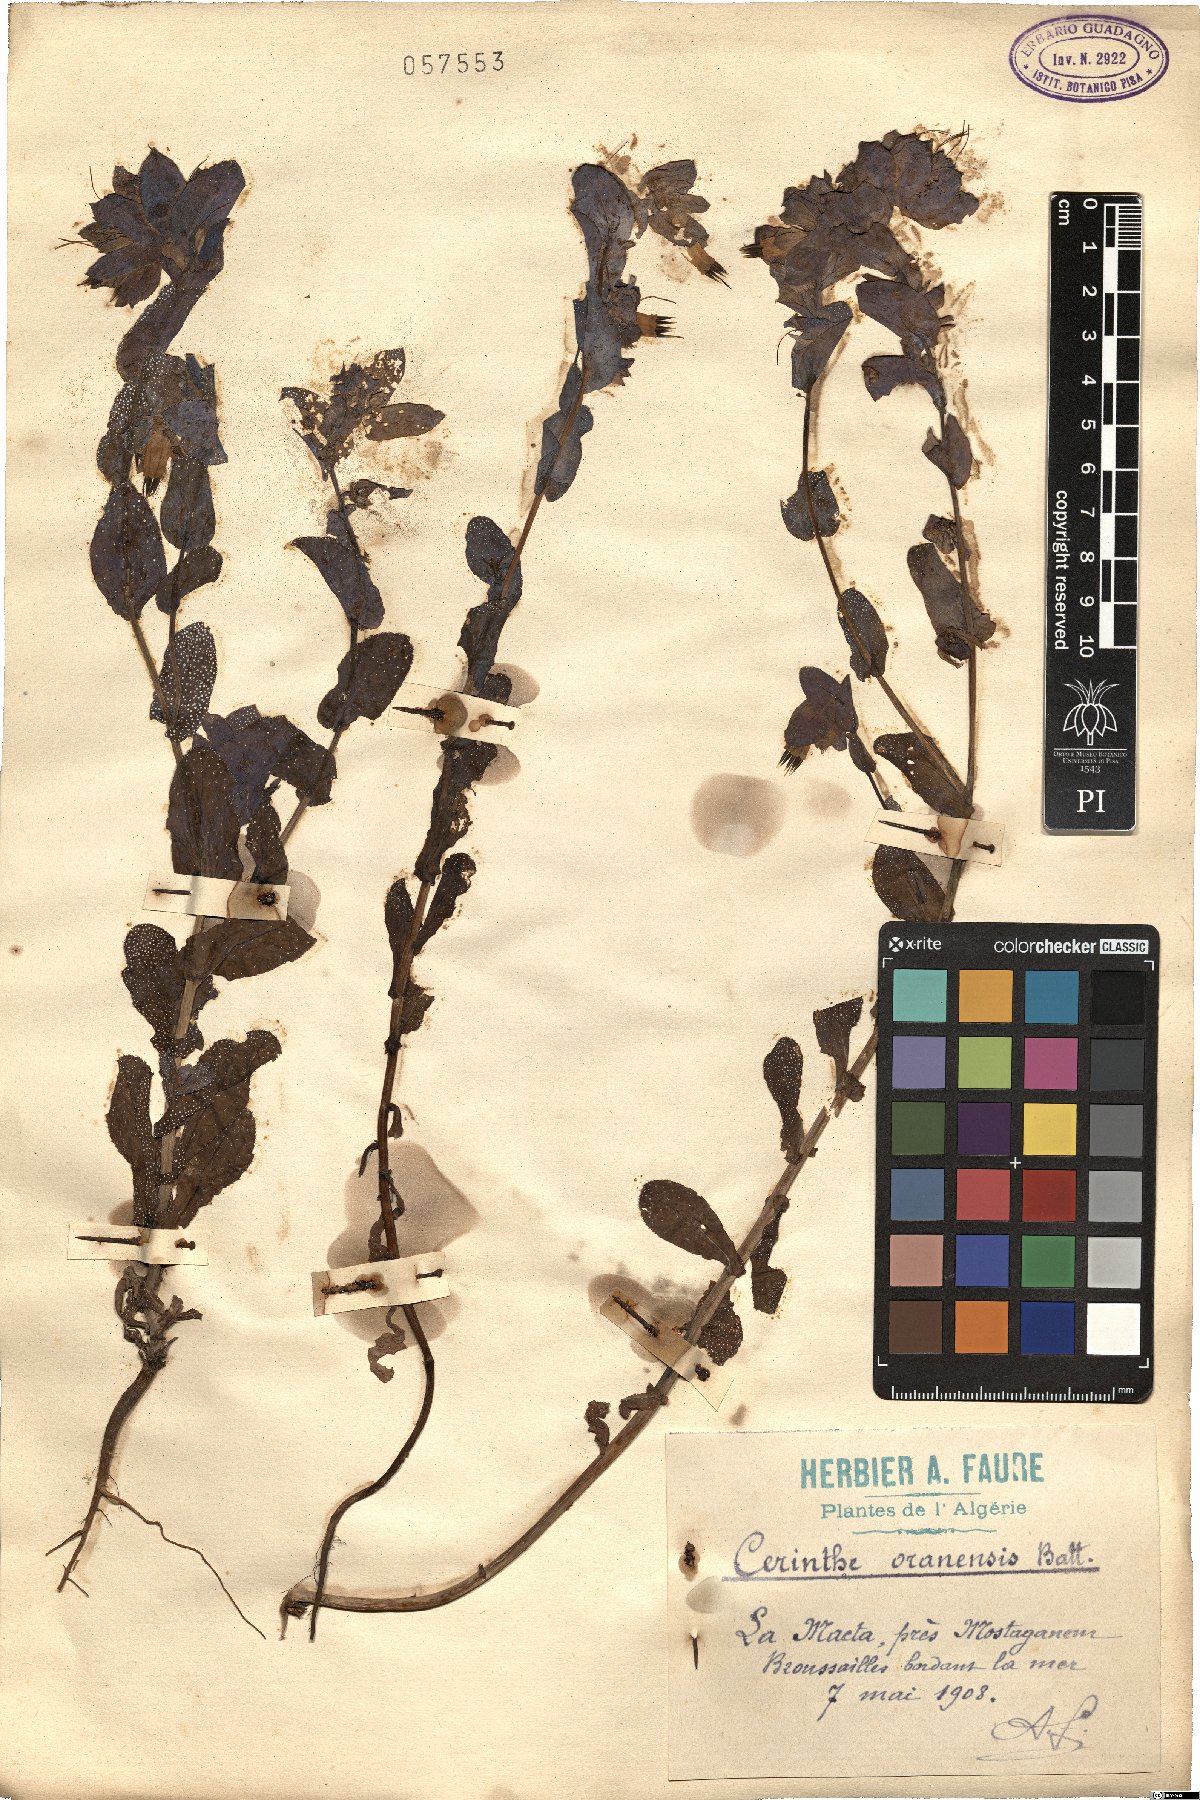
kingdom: Plantae
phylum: Tracheophyta
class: Magnoliopsida
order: Boraginales
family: Boraginaceae
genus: Cerinthe
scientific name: Cerinthe major
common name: Greater honeywort
